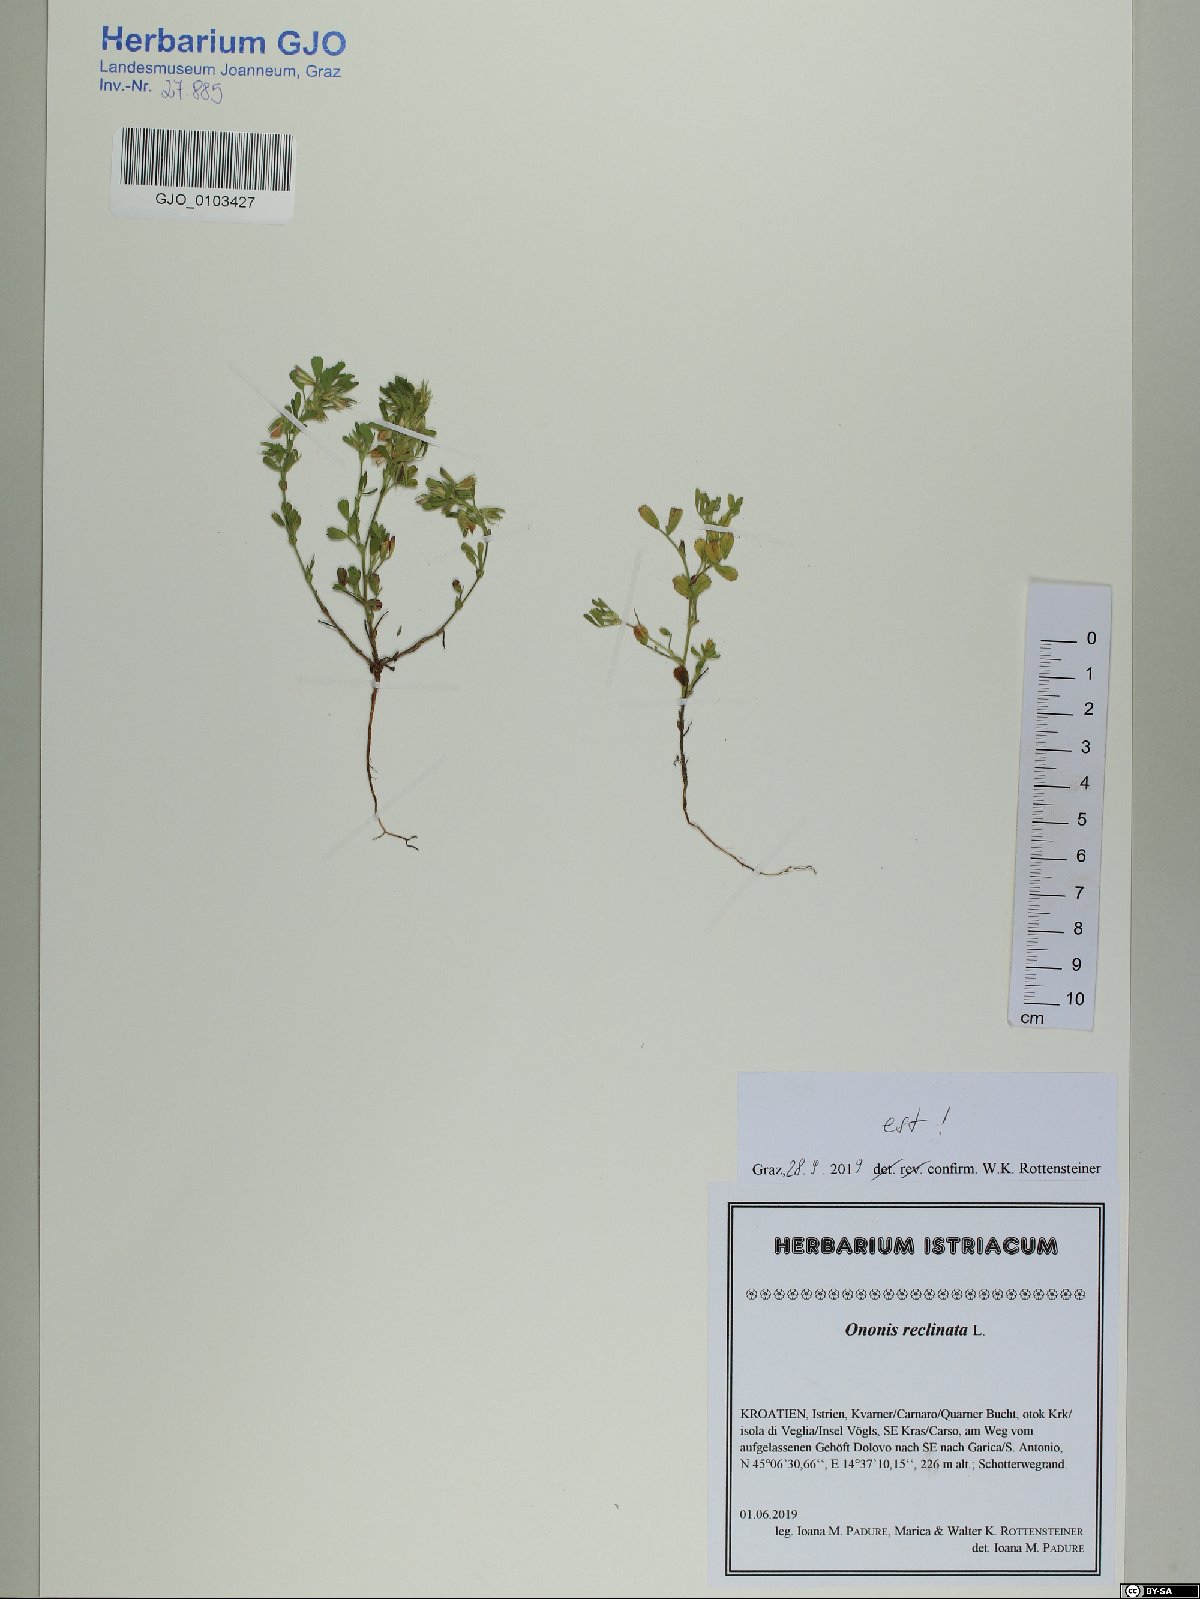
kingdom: Plantae
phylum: Tracheophyta
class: Magnoliopsida
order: Fabales
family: Fabaceae
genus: Ononis
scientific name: Ononis reclinata
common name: Small restharrow
